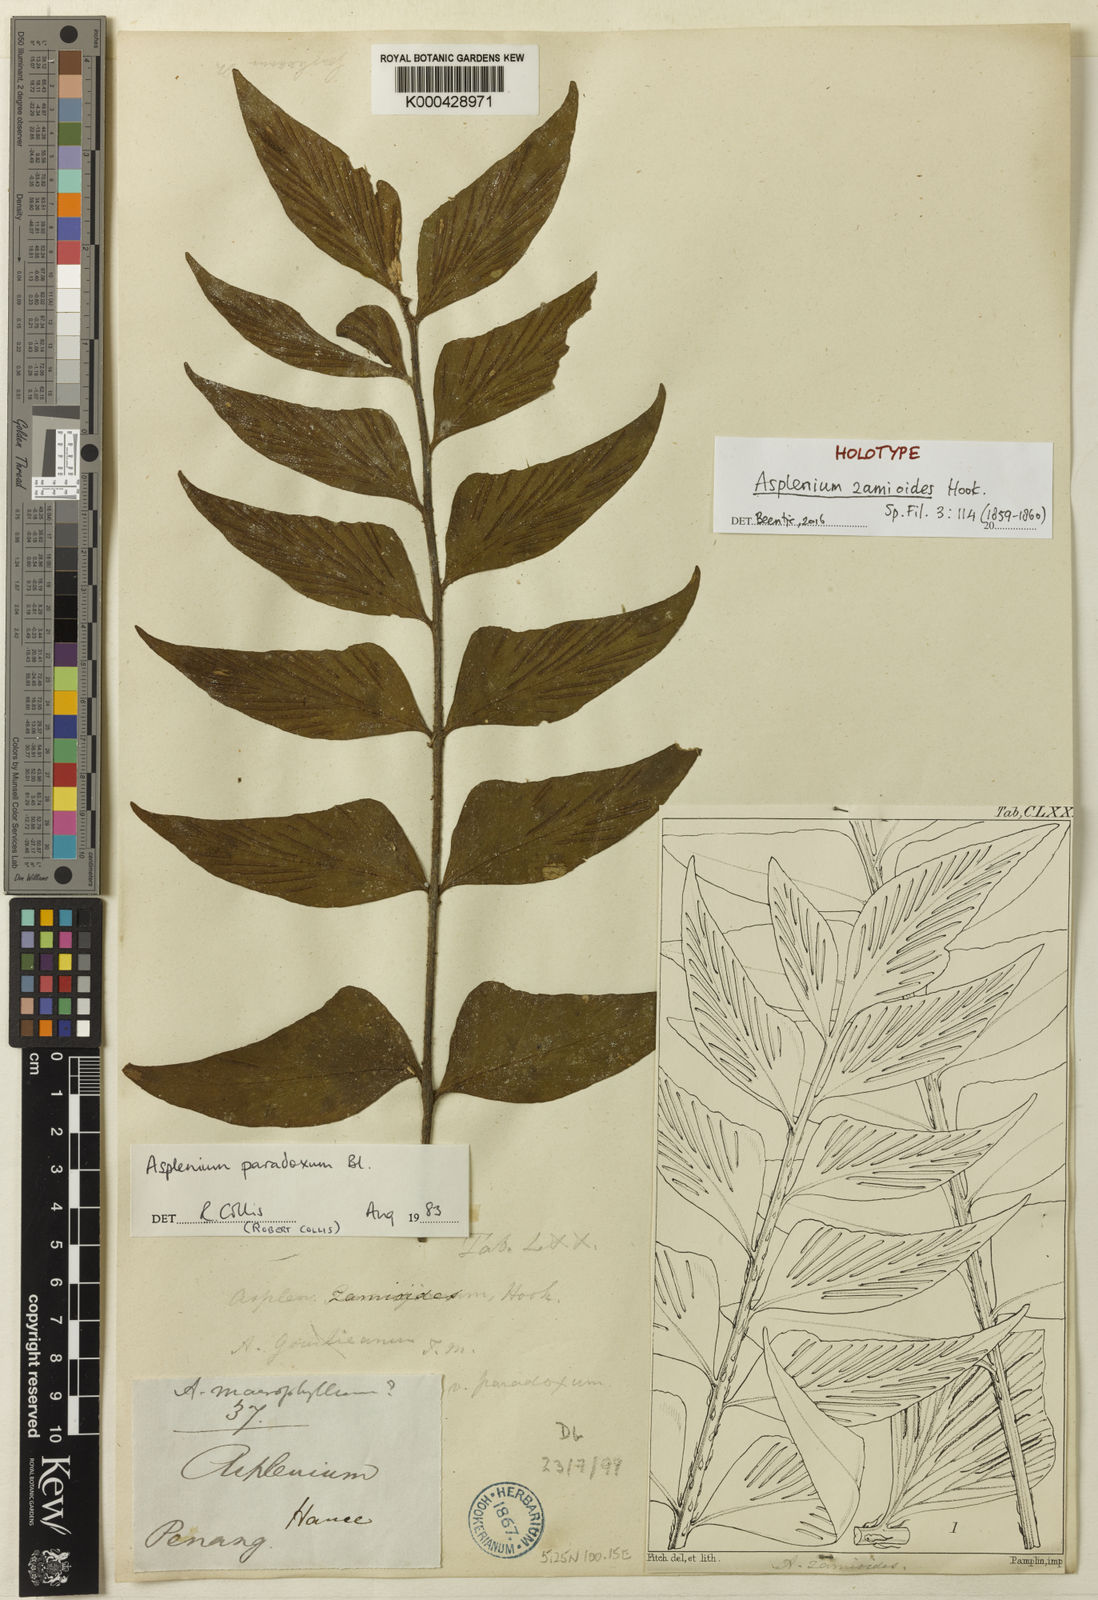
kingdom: Plantae
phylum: Tracheophyta
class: Polypodiopsida
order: Polypodiales
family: Aspleniaceae
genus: Asplenium
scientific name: Asplenium macrophyllum
